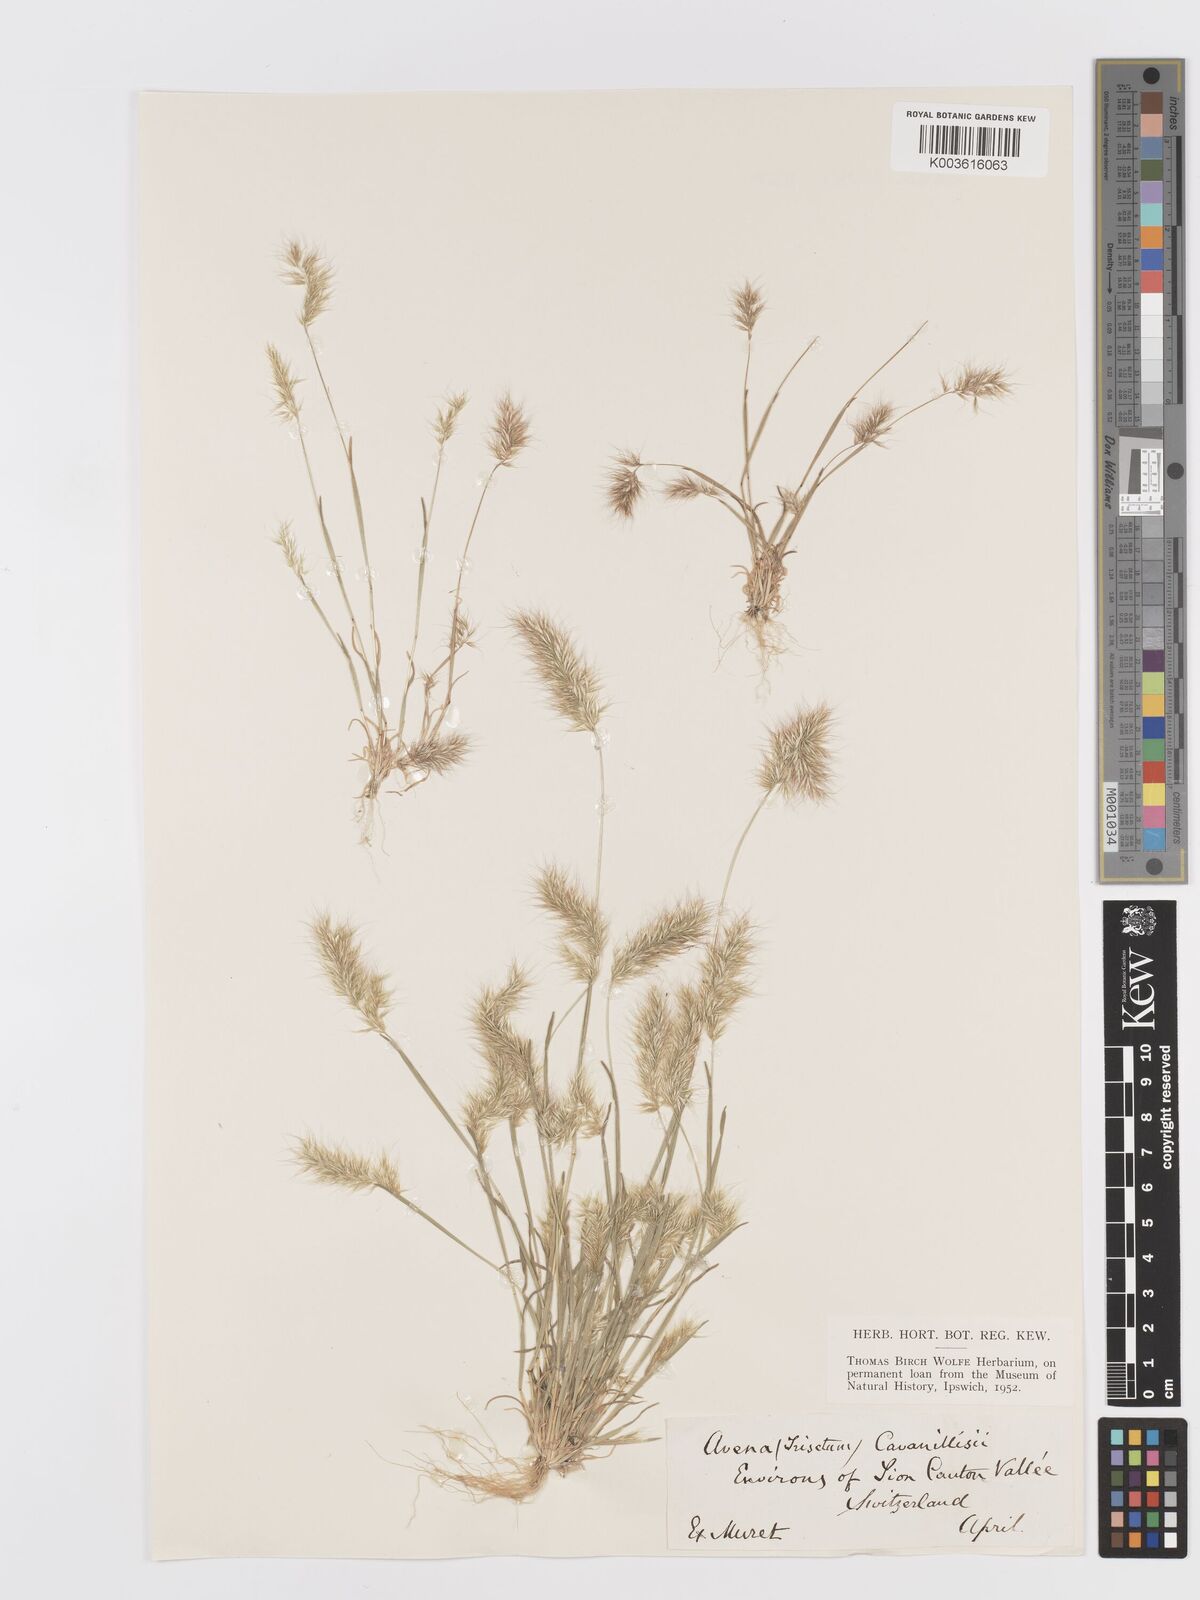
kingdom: Plantae
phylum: Tracheophyta
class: Liliopsida
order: Poales
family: Poaceae
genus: Trisetaria
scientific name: Trisetaria loeflingiana
